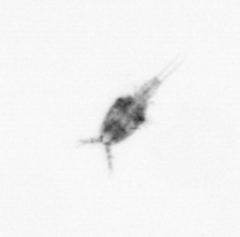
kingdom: Animalia
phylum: Arthropoda
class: Copepoda
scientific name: Copepoda
